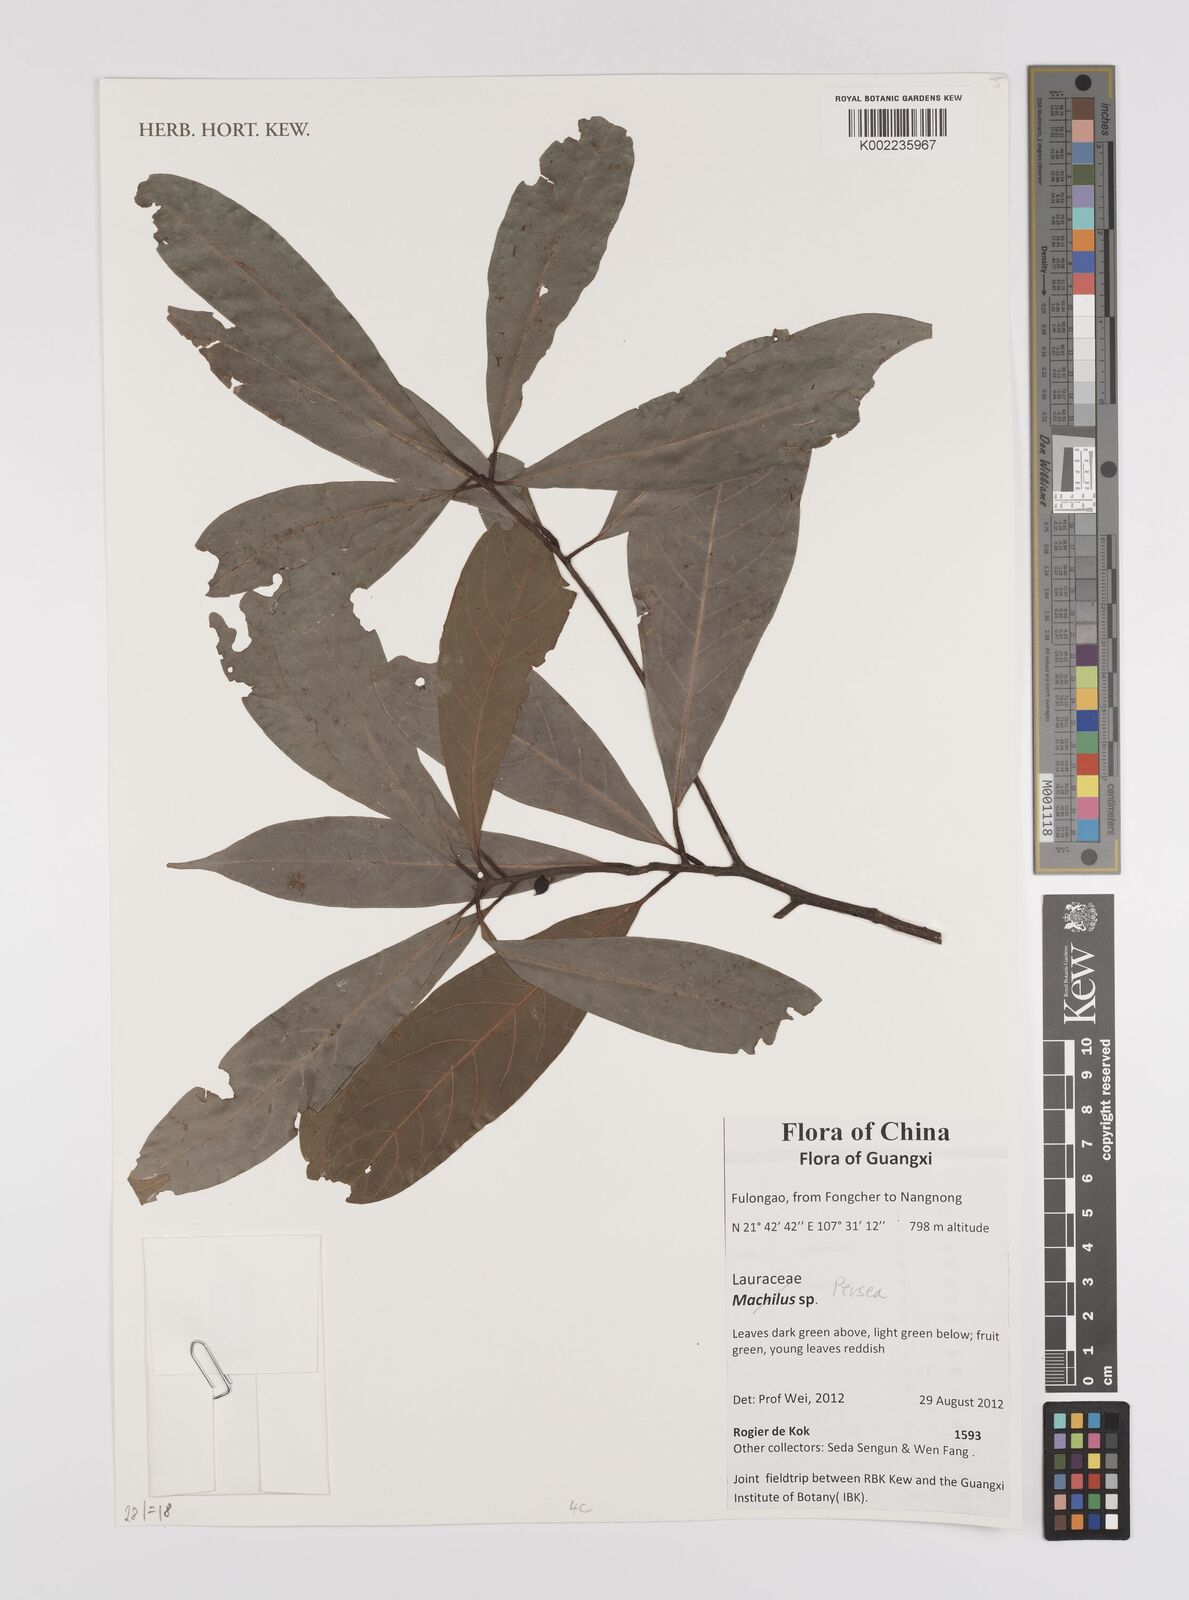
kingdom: Plantae
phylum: Tracheophyta
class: Magnoliopsida
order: Laurales
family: Lauraceae
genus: Persea
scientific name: Persea
